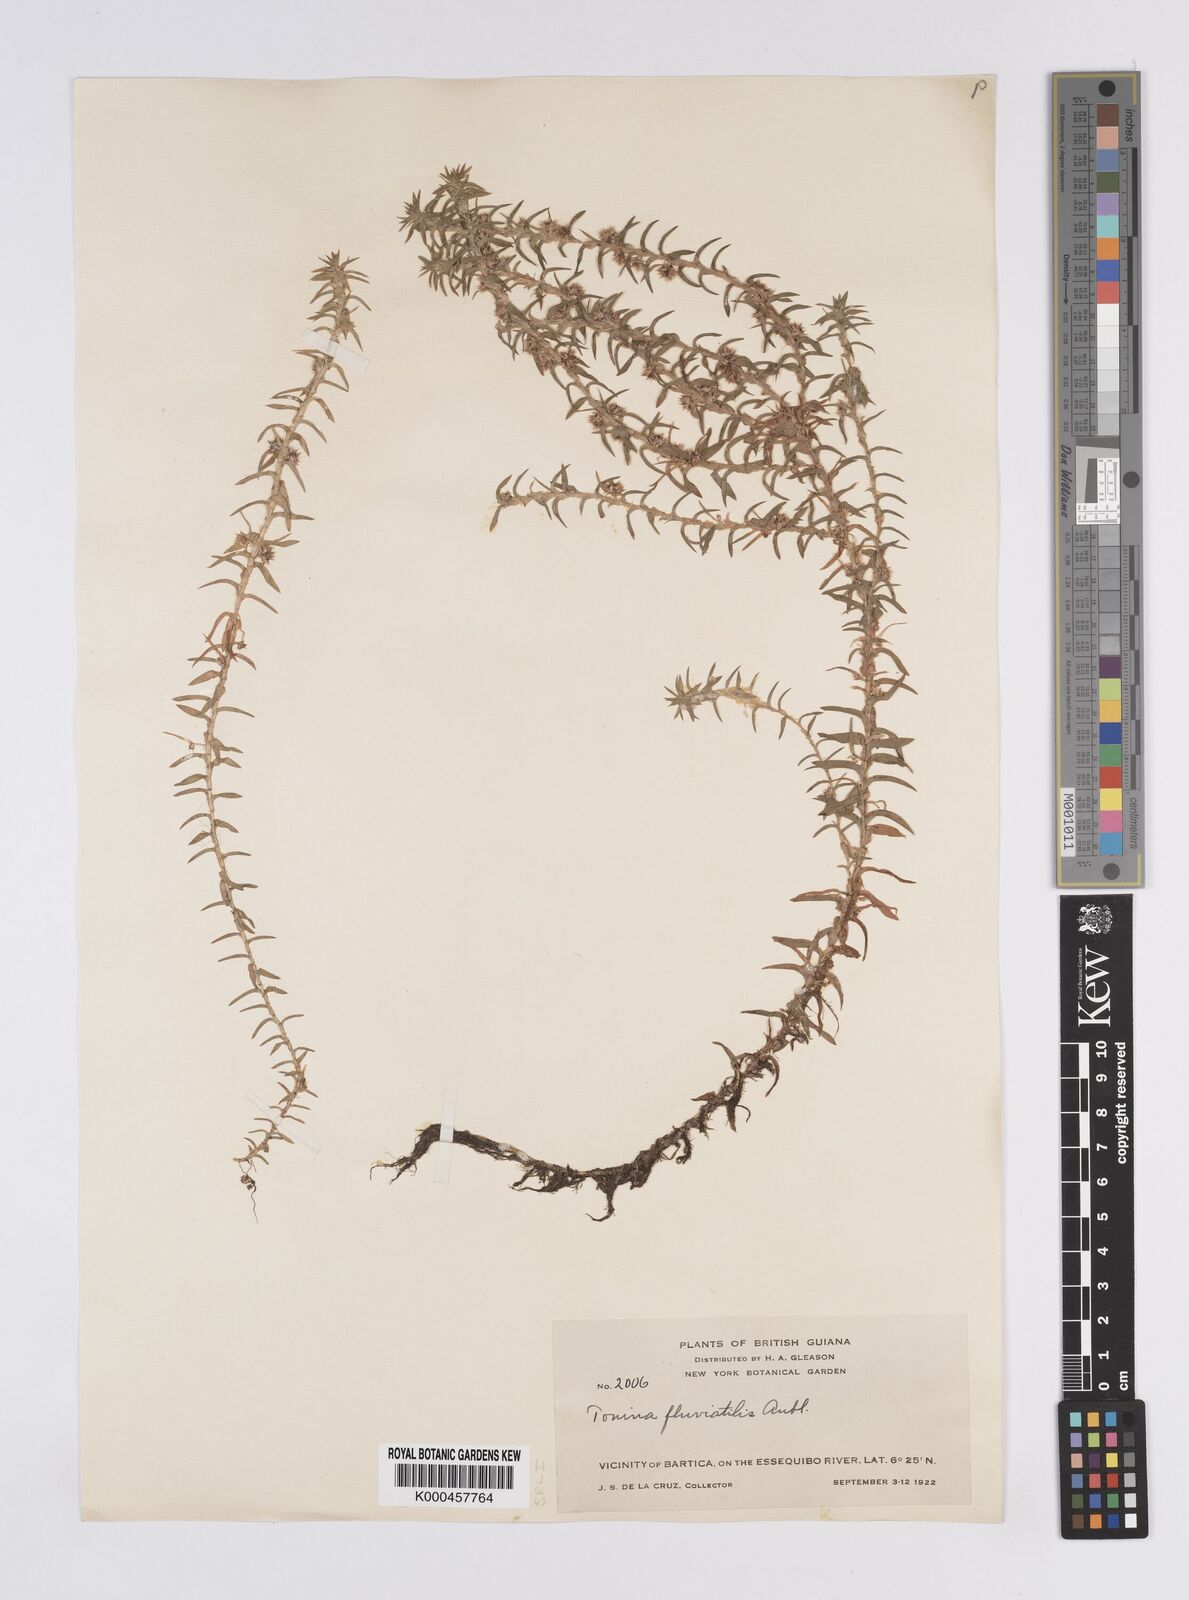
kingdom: Plantae
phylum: Tracheophyta
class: Liliopsida
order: Poales
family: Eriocaulaceae
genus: Paepalanthus
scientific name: Paepalanthus fluviatilis
